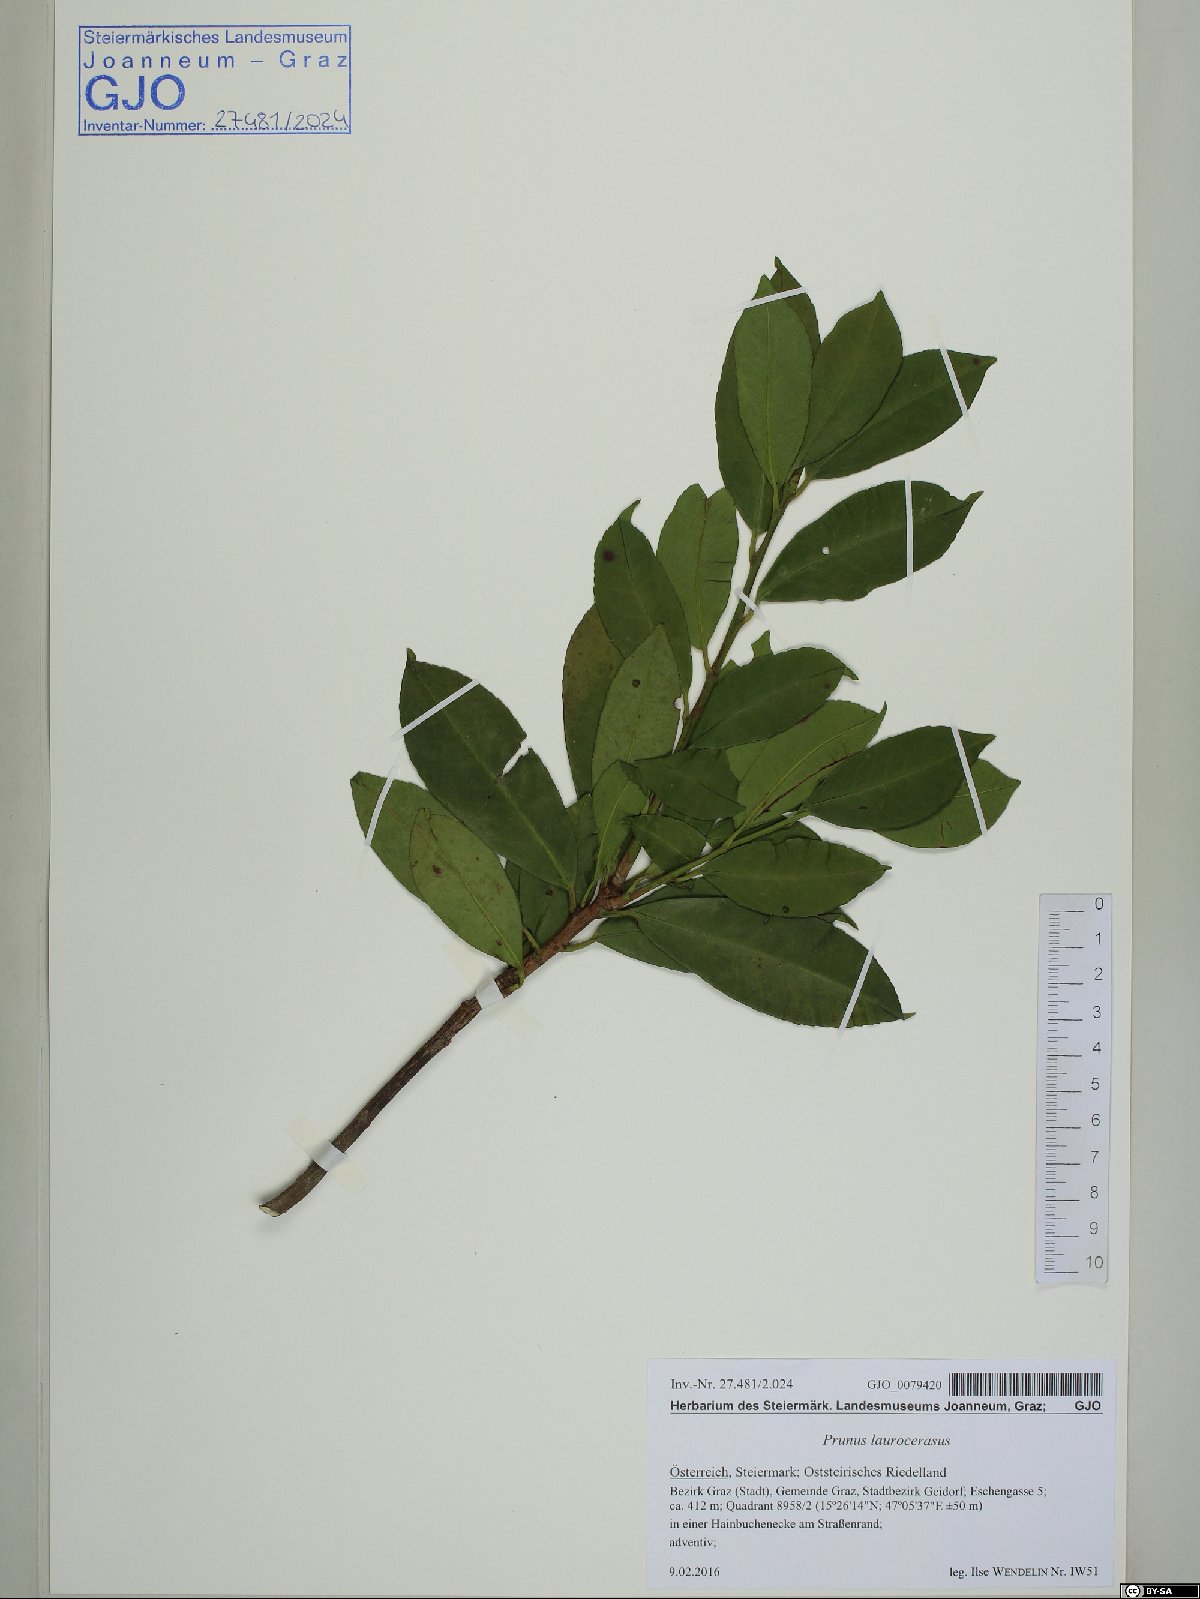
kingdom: Plantae
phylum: Tracheophyta
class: Magnoliopsida
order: Rosales
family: Rosaceae
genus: Prunus
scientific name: Prunus laurocerasus
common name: Cherry laurel
